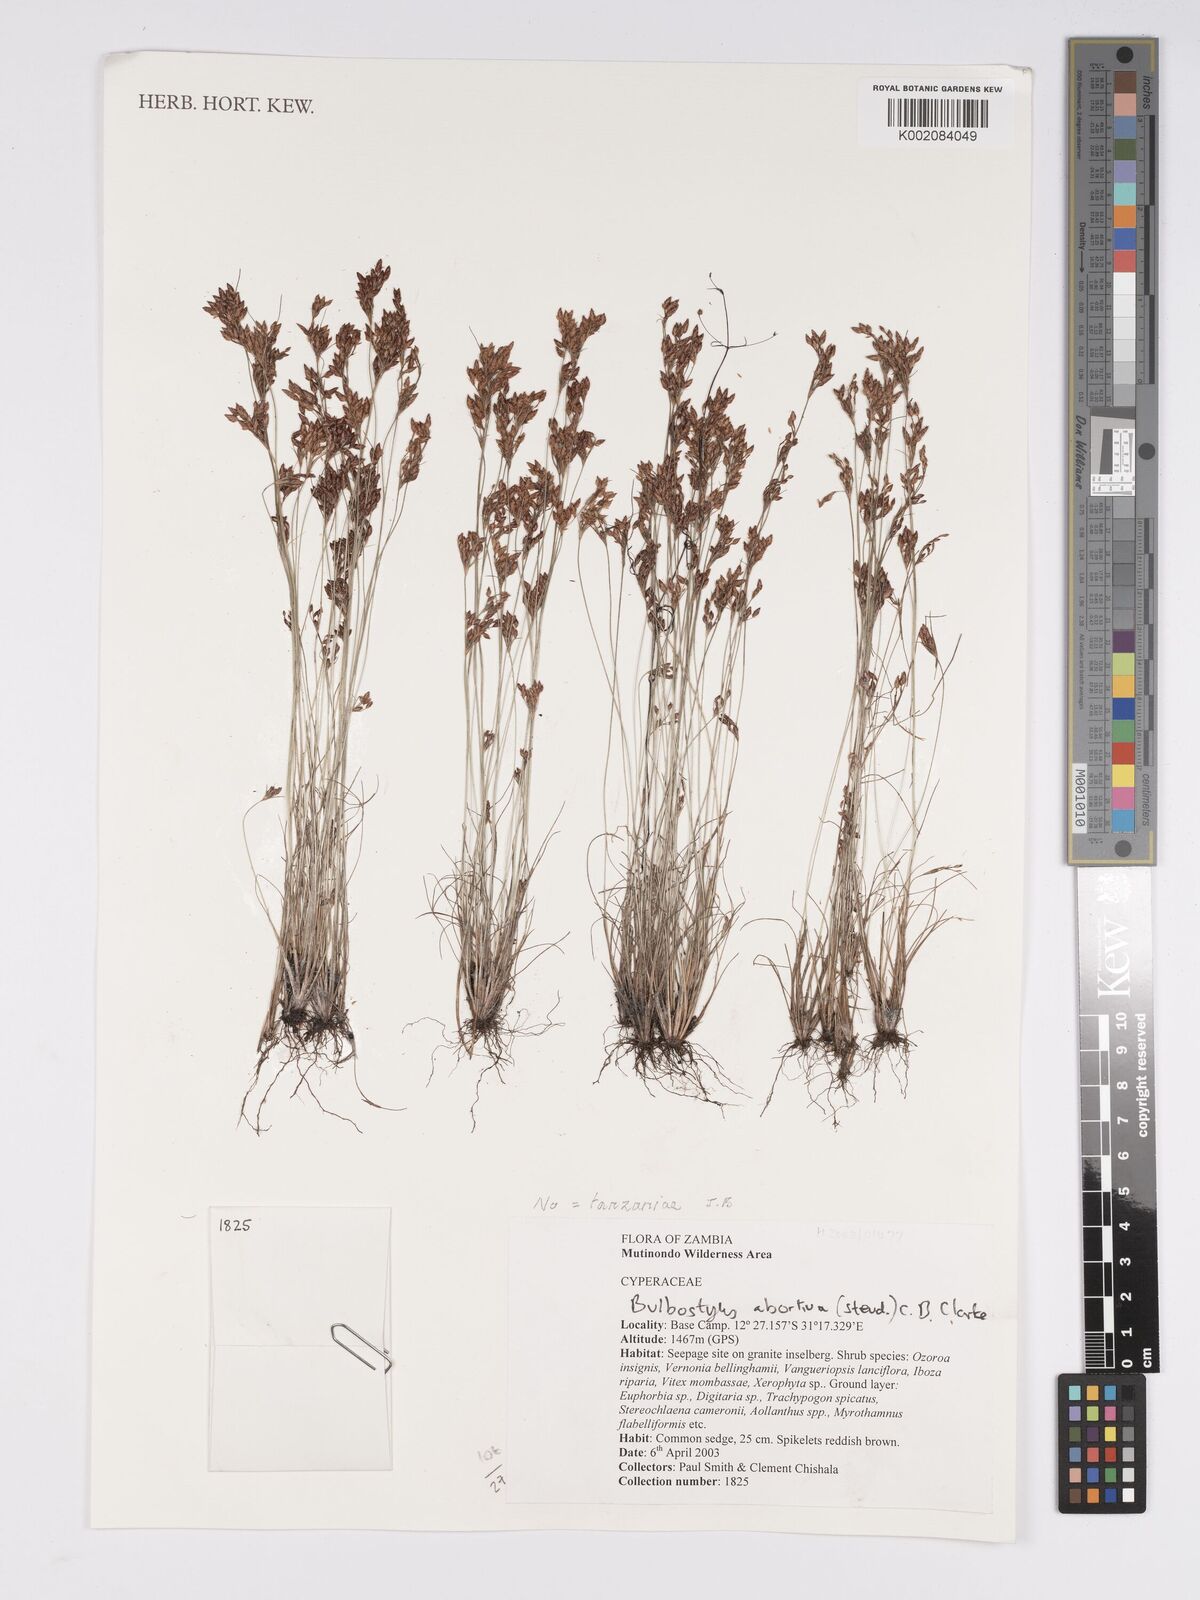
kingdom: Plantae
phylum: Tracheophyta
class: Liliopsida
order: Poales
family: Cyperaceae
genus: Bulbostylis
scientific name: Bulbostylis tanzaniae
